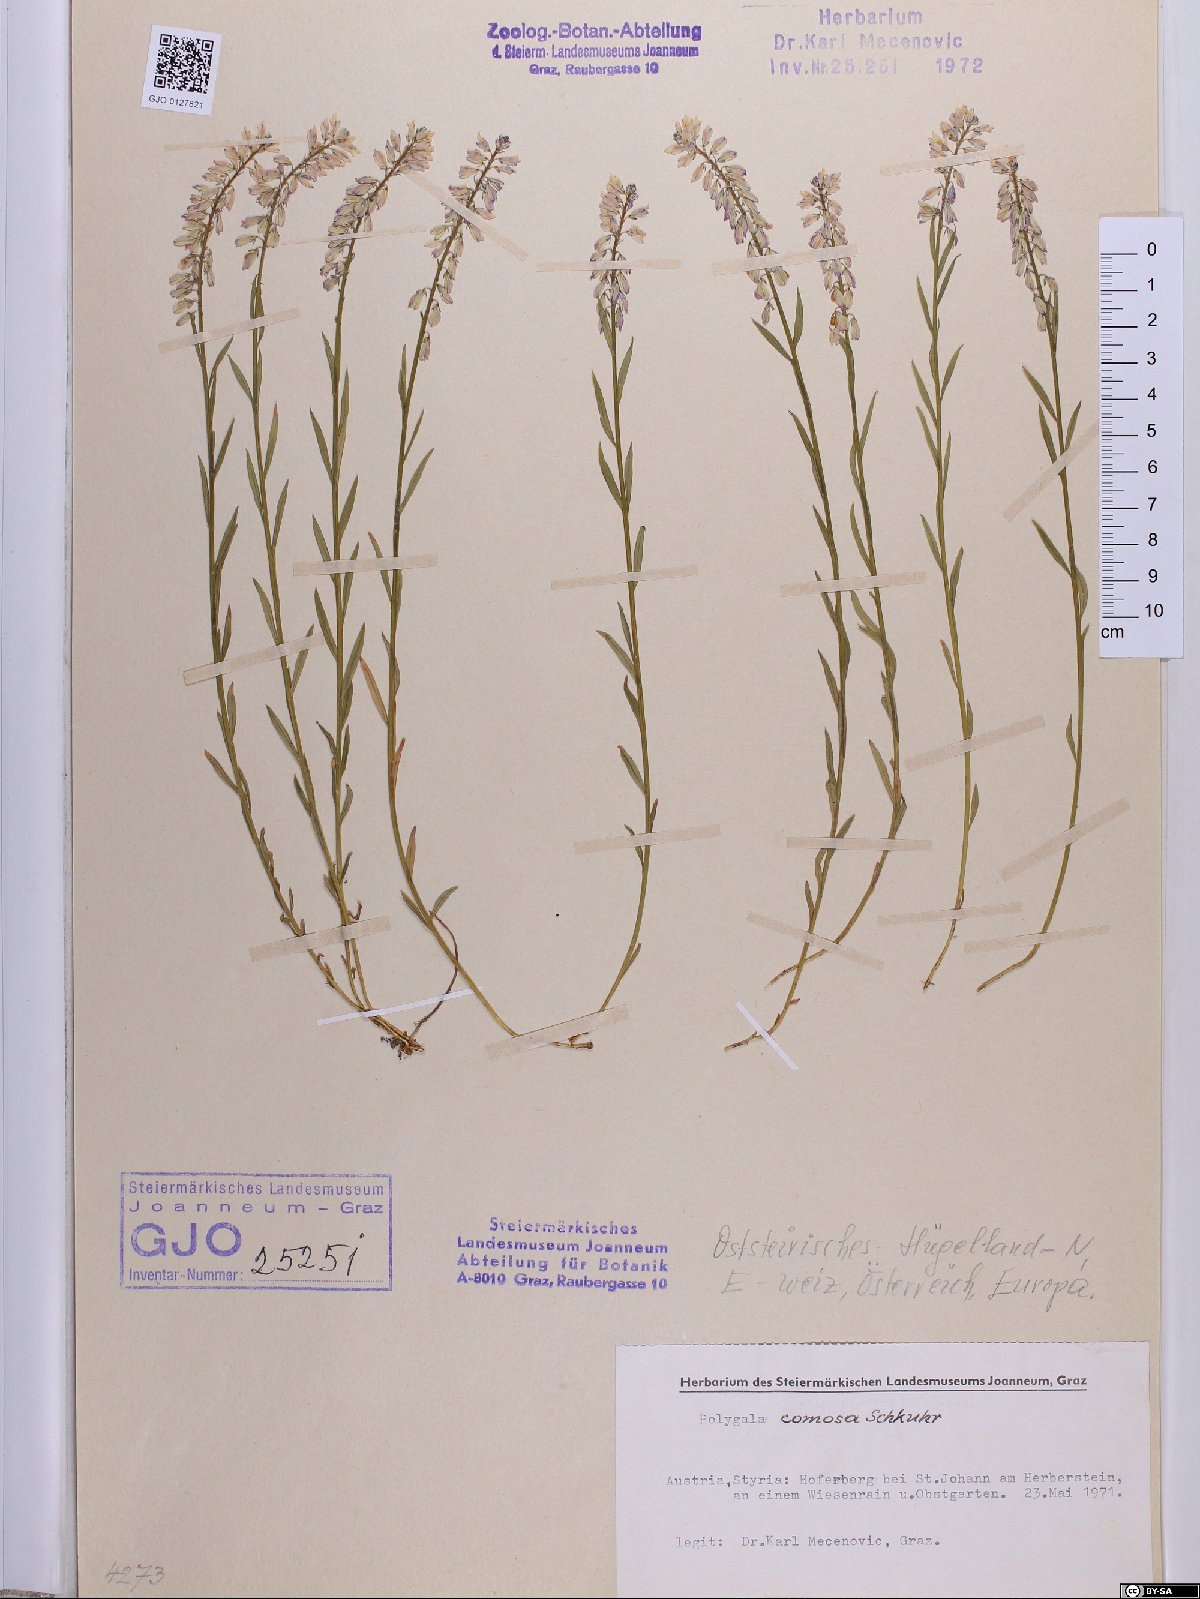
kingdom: Plantae
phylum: Tracheophyta
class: Magnoliopsida
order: Fabales
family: Polygalaceae
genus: Polygala
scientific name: Polygala comosa
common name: Tufted milkwort
